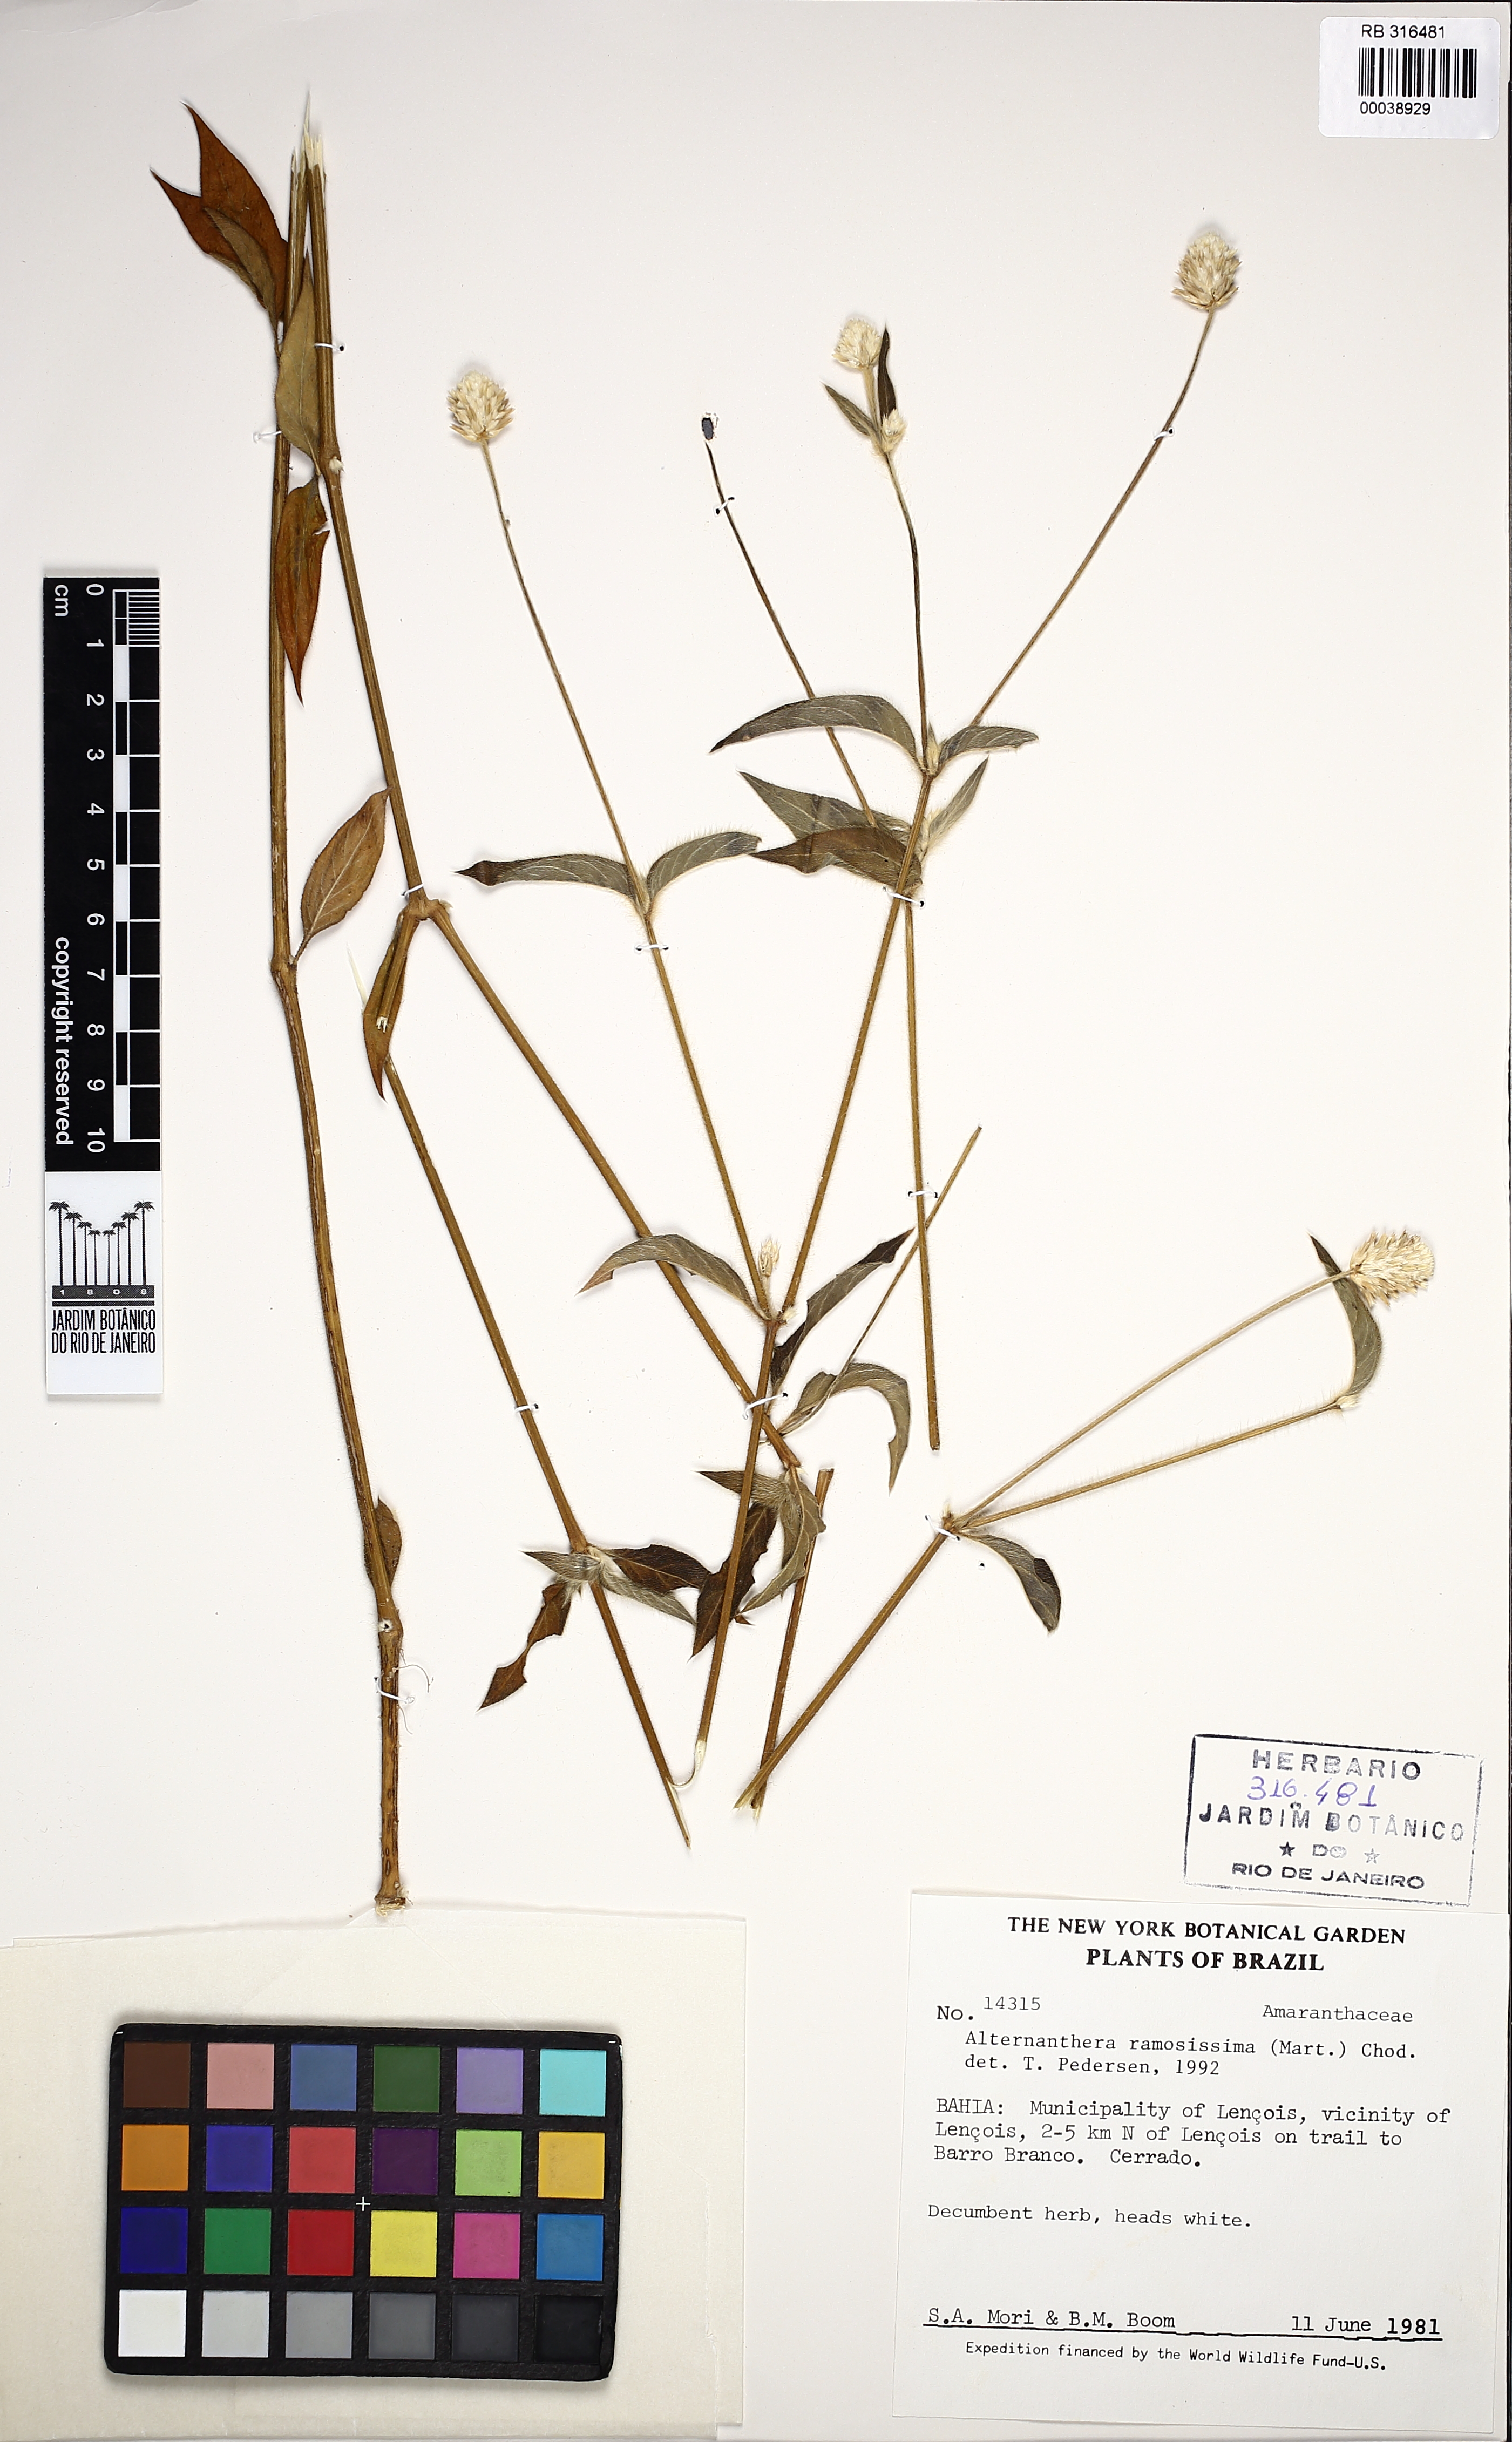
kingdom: Plantae
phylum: Tracheophyta
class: Magnoliopsida
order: Caryophyllales
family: Amaranthaceae
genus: Alternanthera
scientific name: Alternanthera brasiliana
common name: Brazilian joyweed
